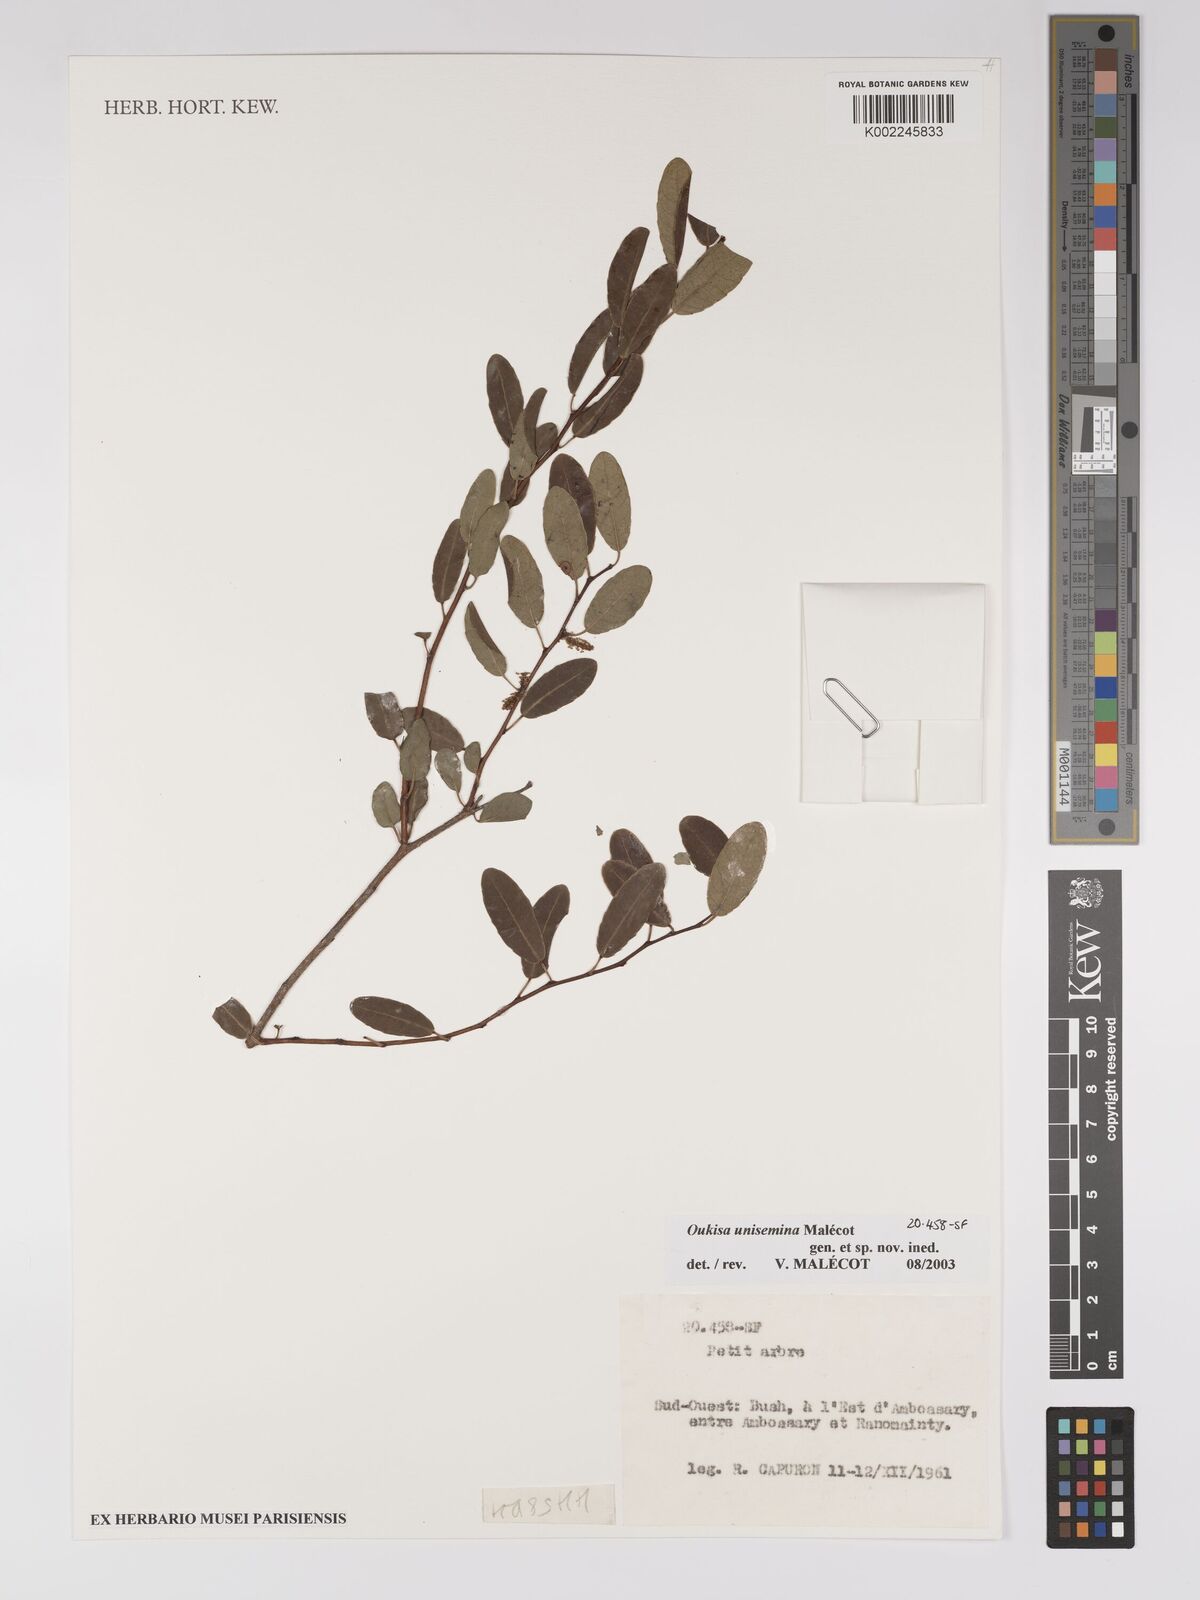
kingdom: Plantae
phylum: Tracheophyta
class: Magnoliopsida
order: Malpighiales
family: Euphorbiaceae
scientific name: Euphorbiaceae
